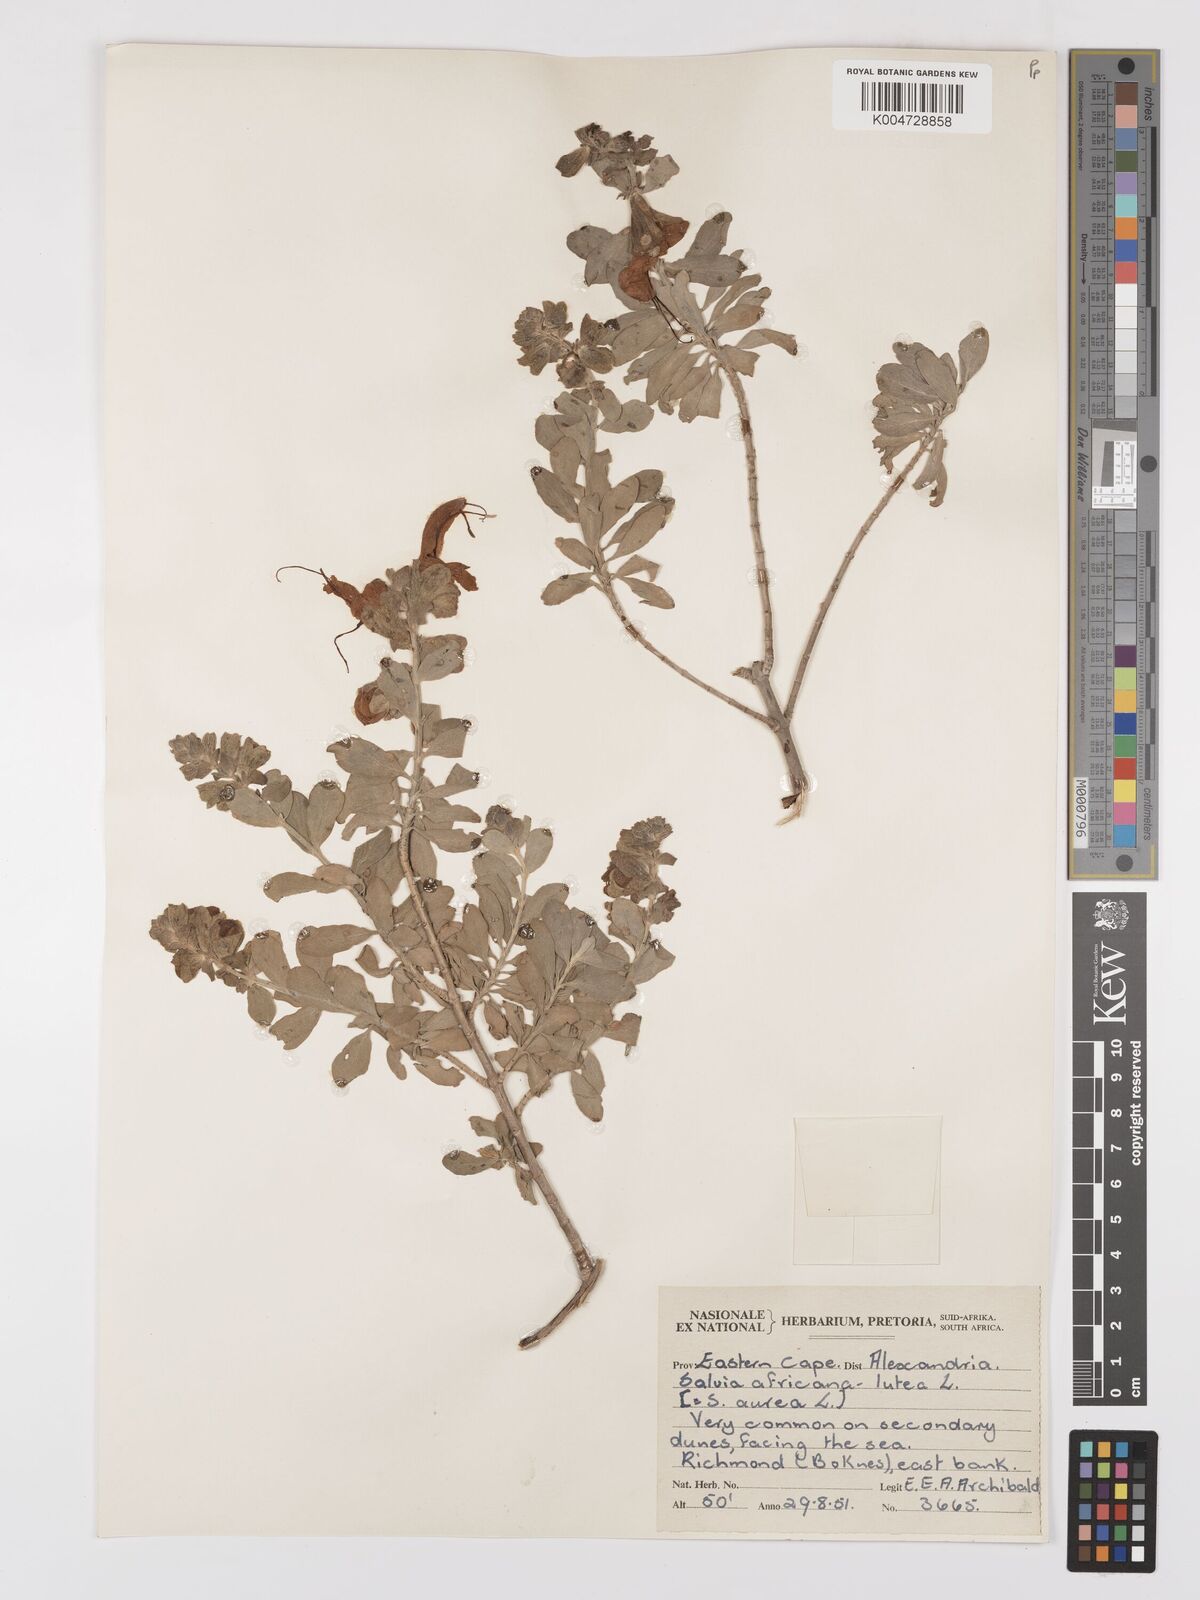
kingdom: Plantae
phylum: Tracheophyta
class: Magnoliopsida
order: Lamiales
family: Lamiaceae
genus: Salvia
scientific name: Salvia aurea
